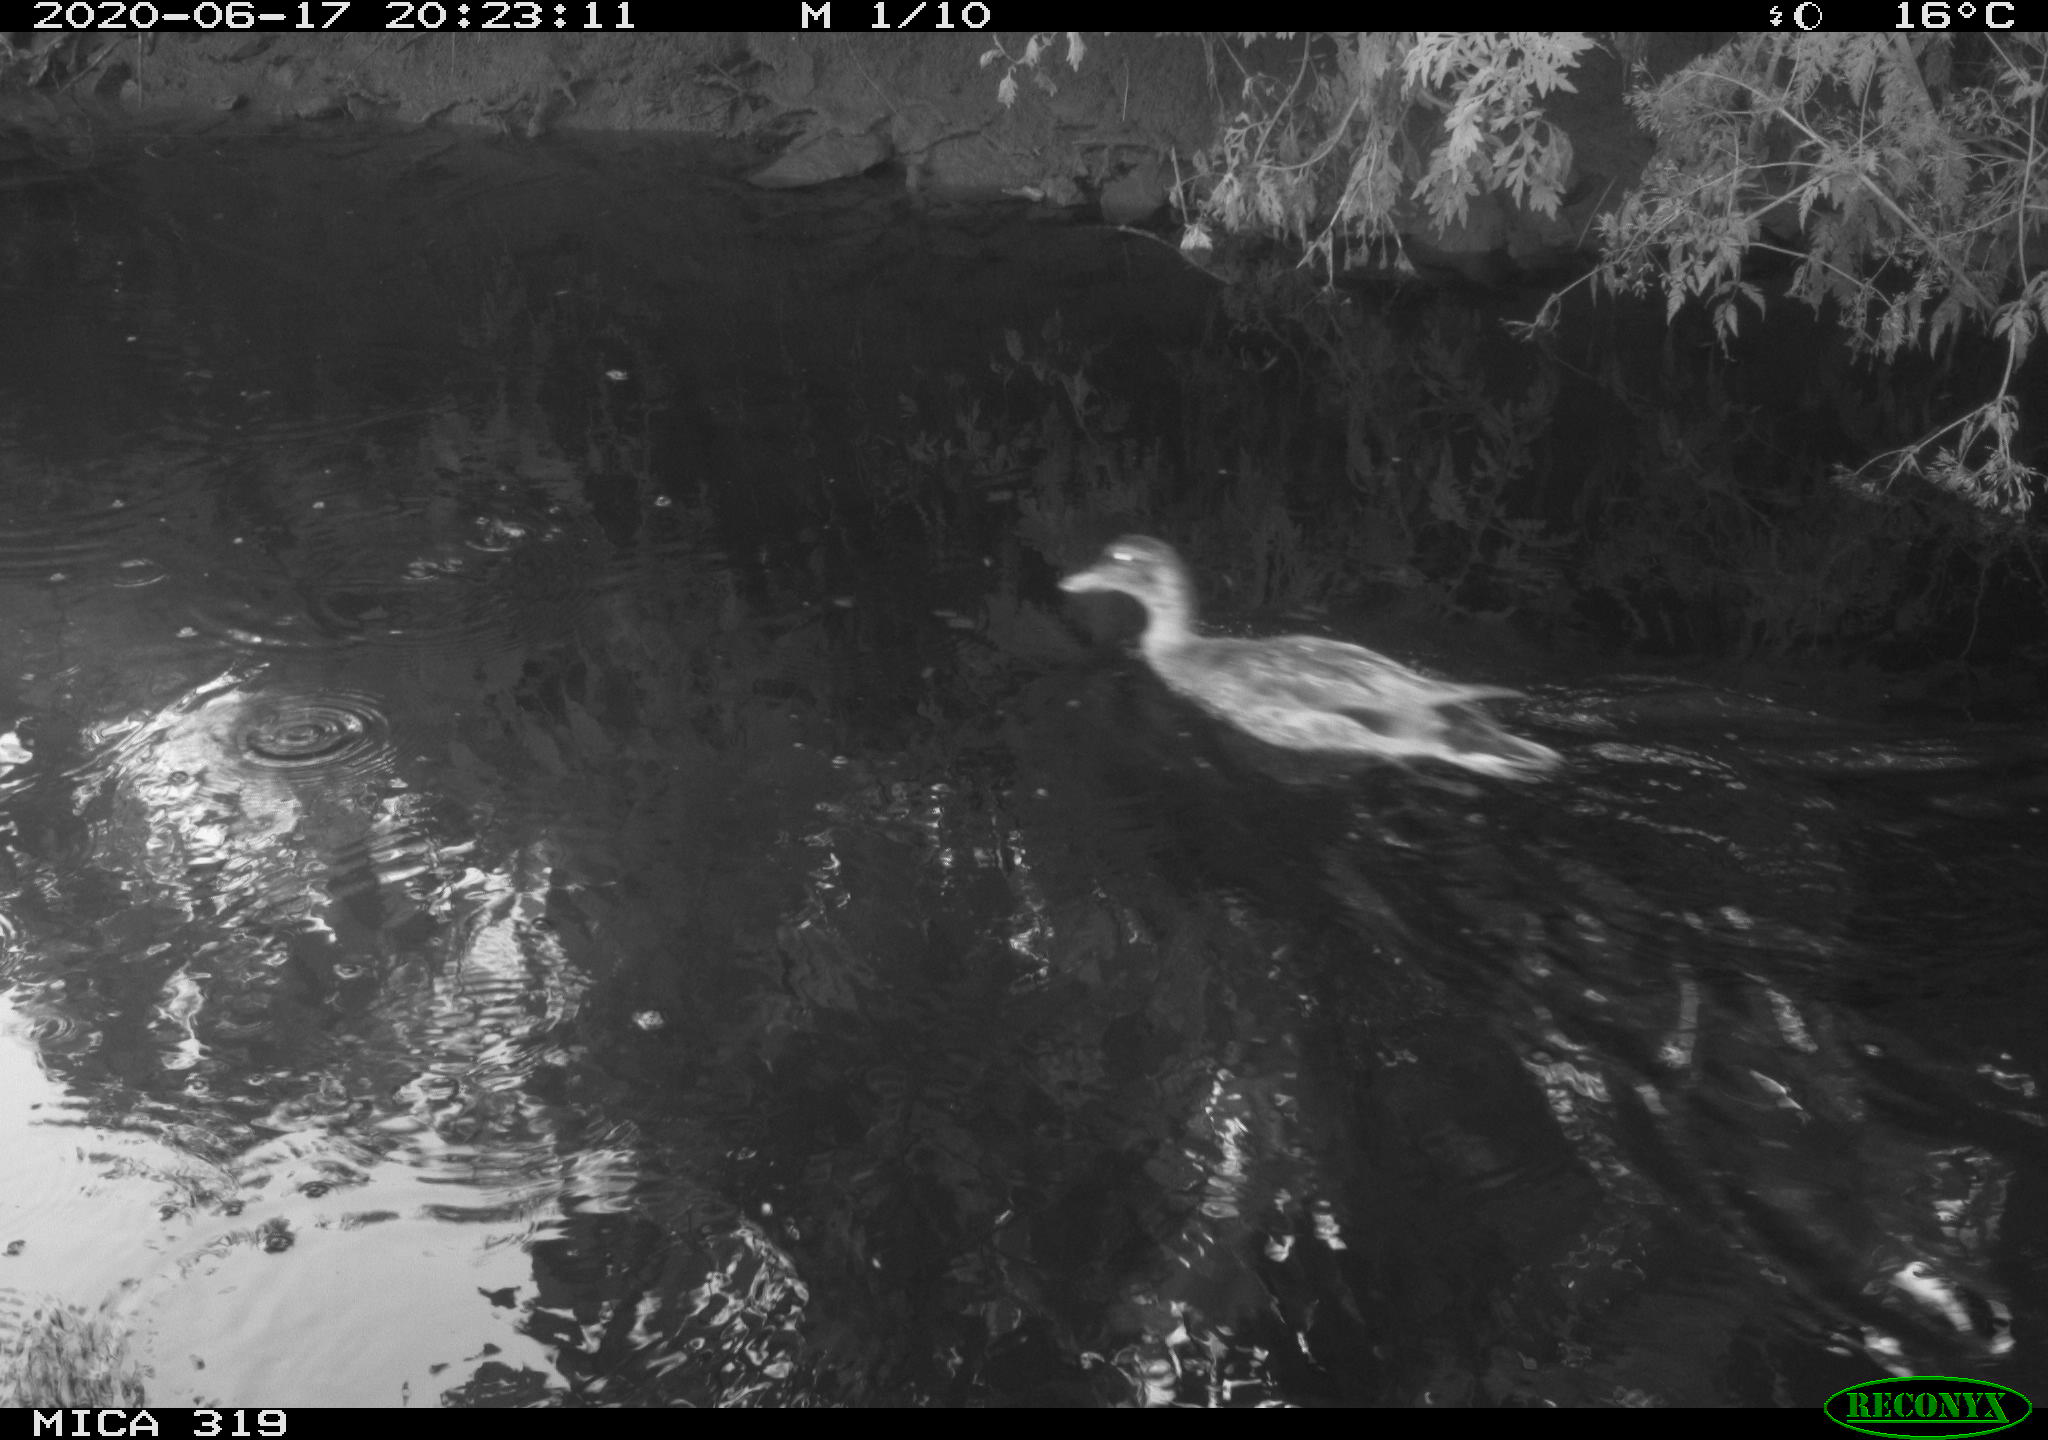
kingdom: Animalia
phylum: Chordata
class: Aves
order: Anseriformes
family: Anatidae
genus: Anas
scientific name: Anas platyrhynchos
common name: Mallard
